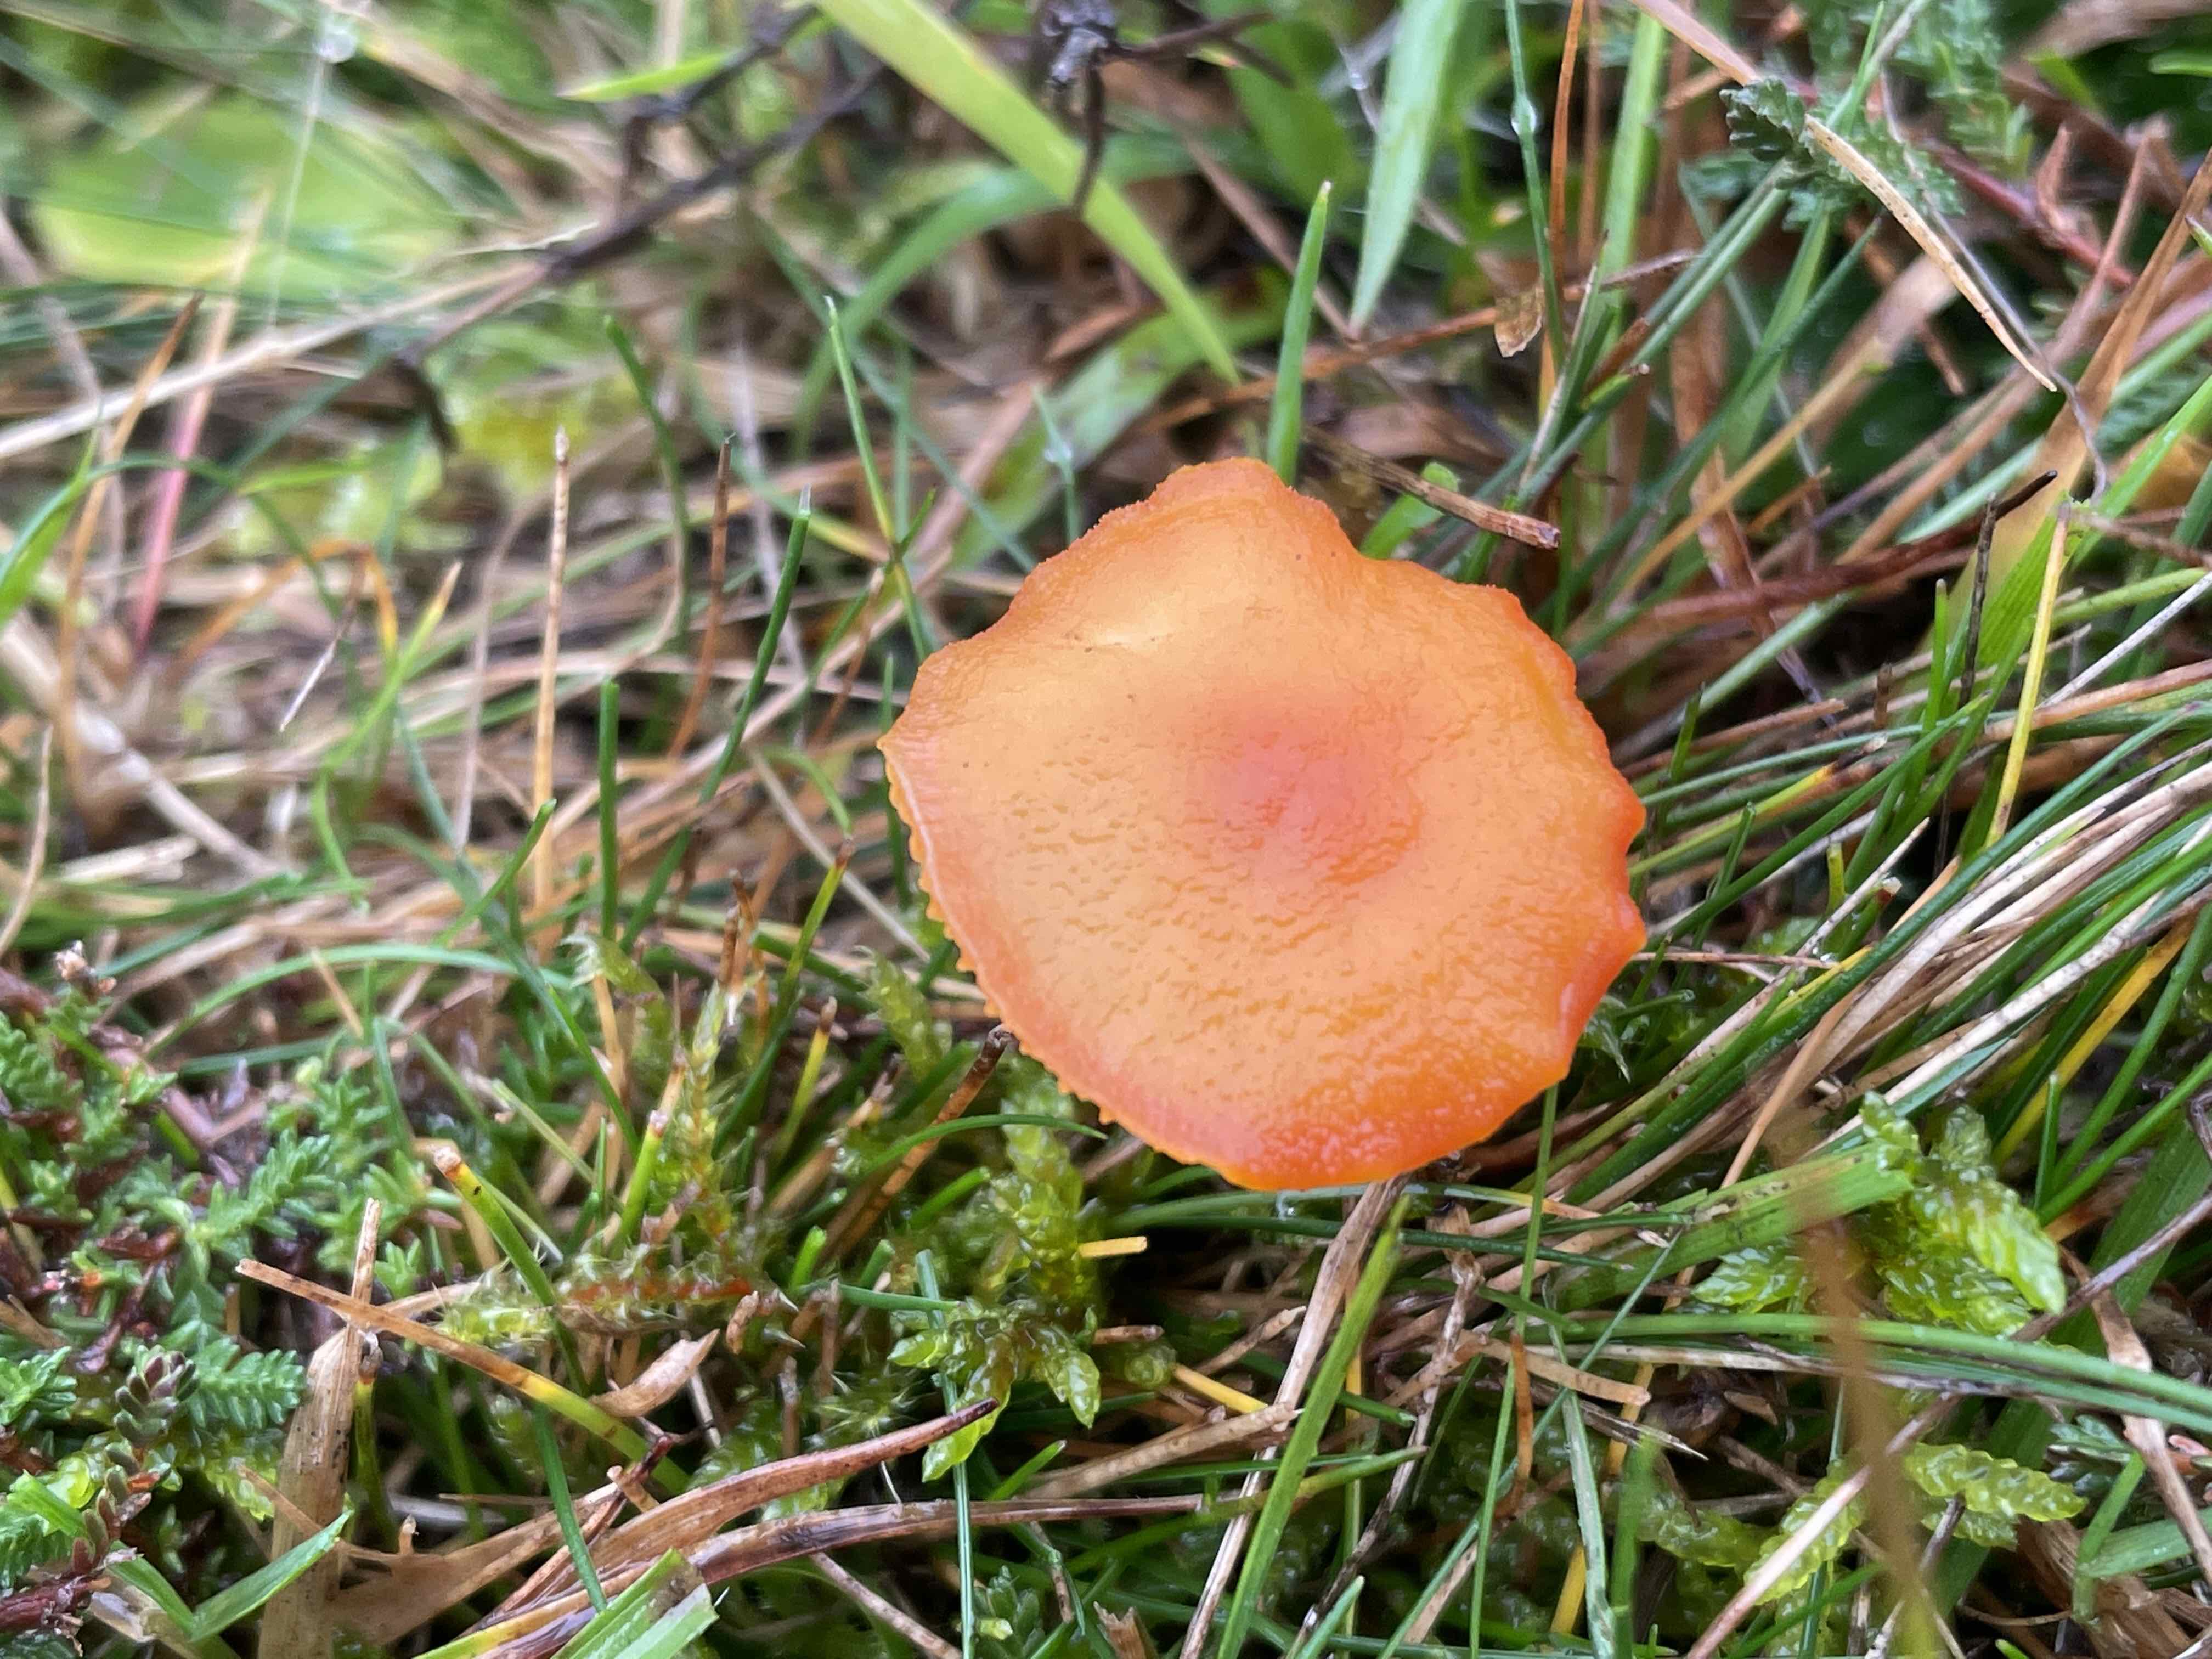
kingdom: Fungi
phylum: Basidiomycota
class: Agaricomycetes
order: Agaricales
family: Hygrophoraceae
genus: Hygrocybe
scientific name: Hygrocybe miniata
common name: mønje-vokshat
